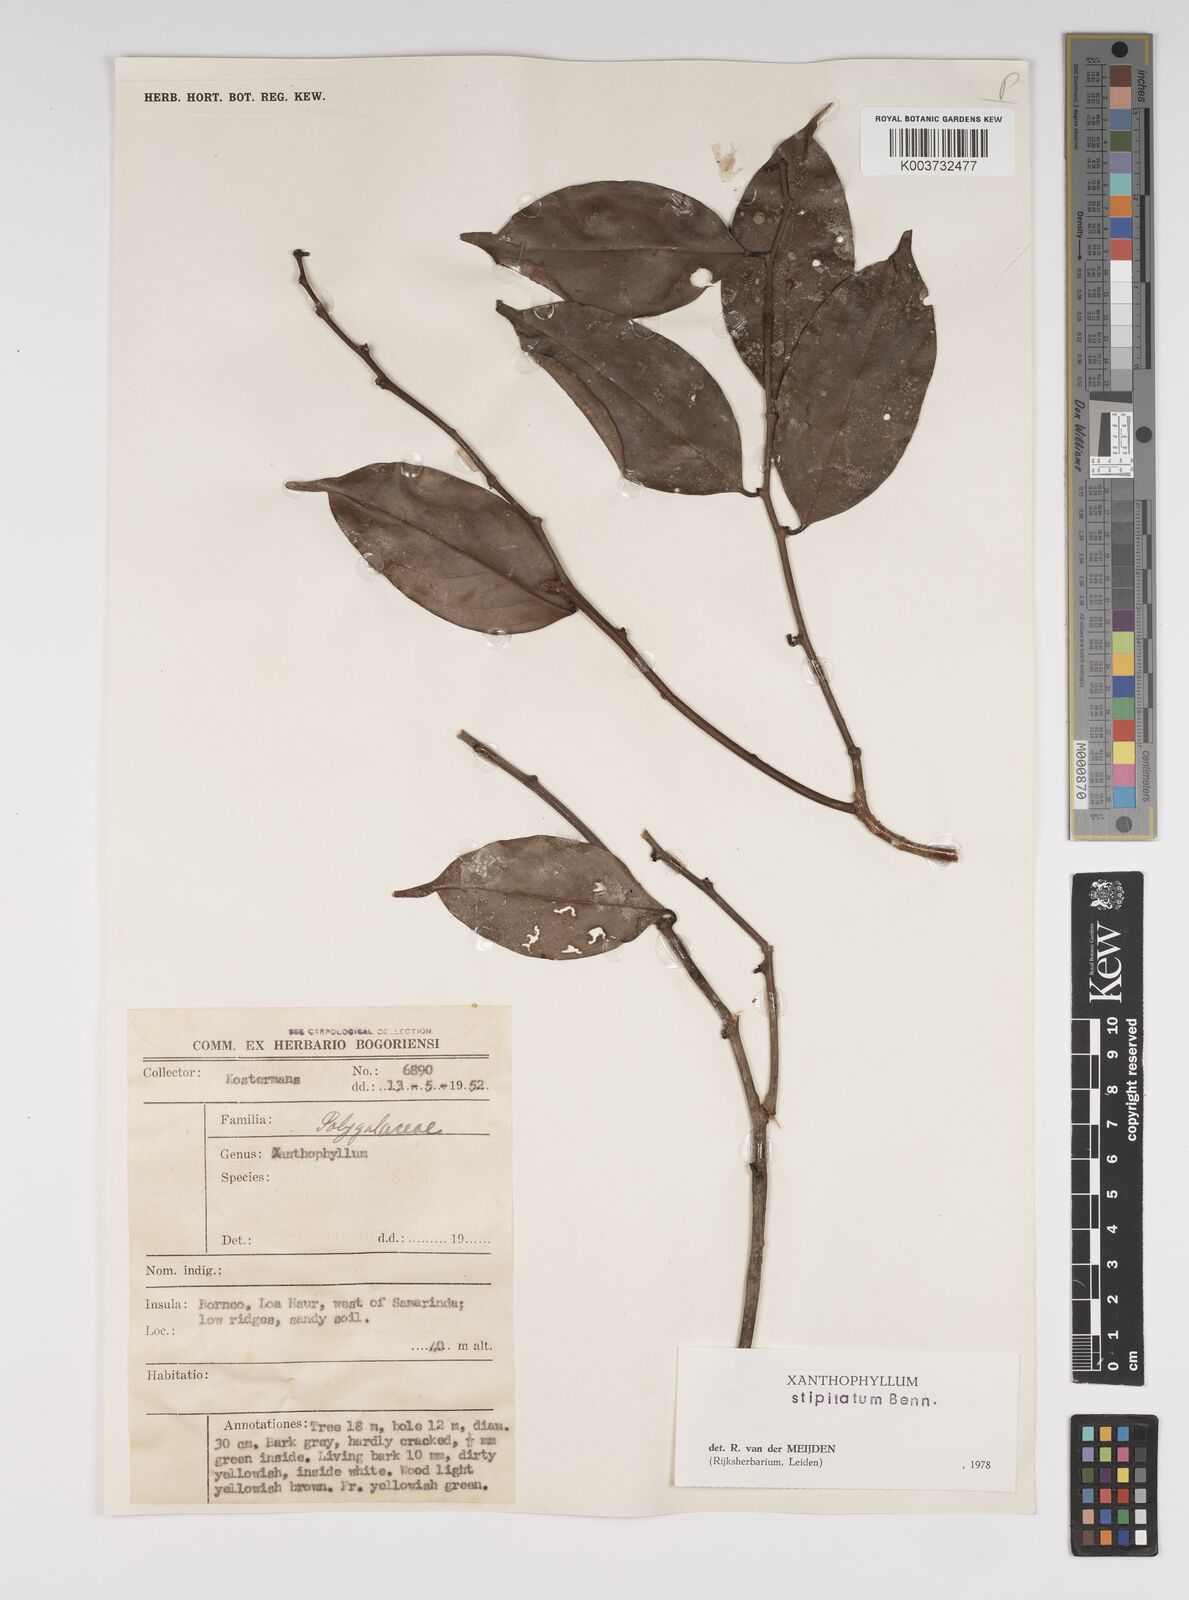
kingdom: Plantae
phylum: Tracheophyta
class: Magnoliopsida
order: Fabales
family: Polygalaceae
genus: Xanthophyllum
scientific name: Xanthophyllum stipitatum
